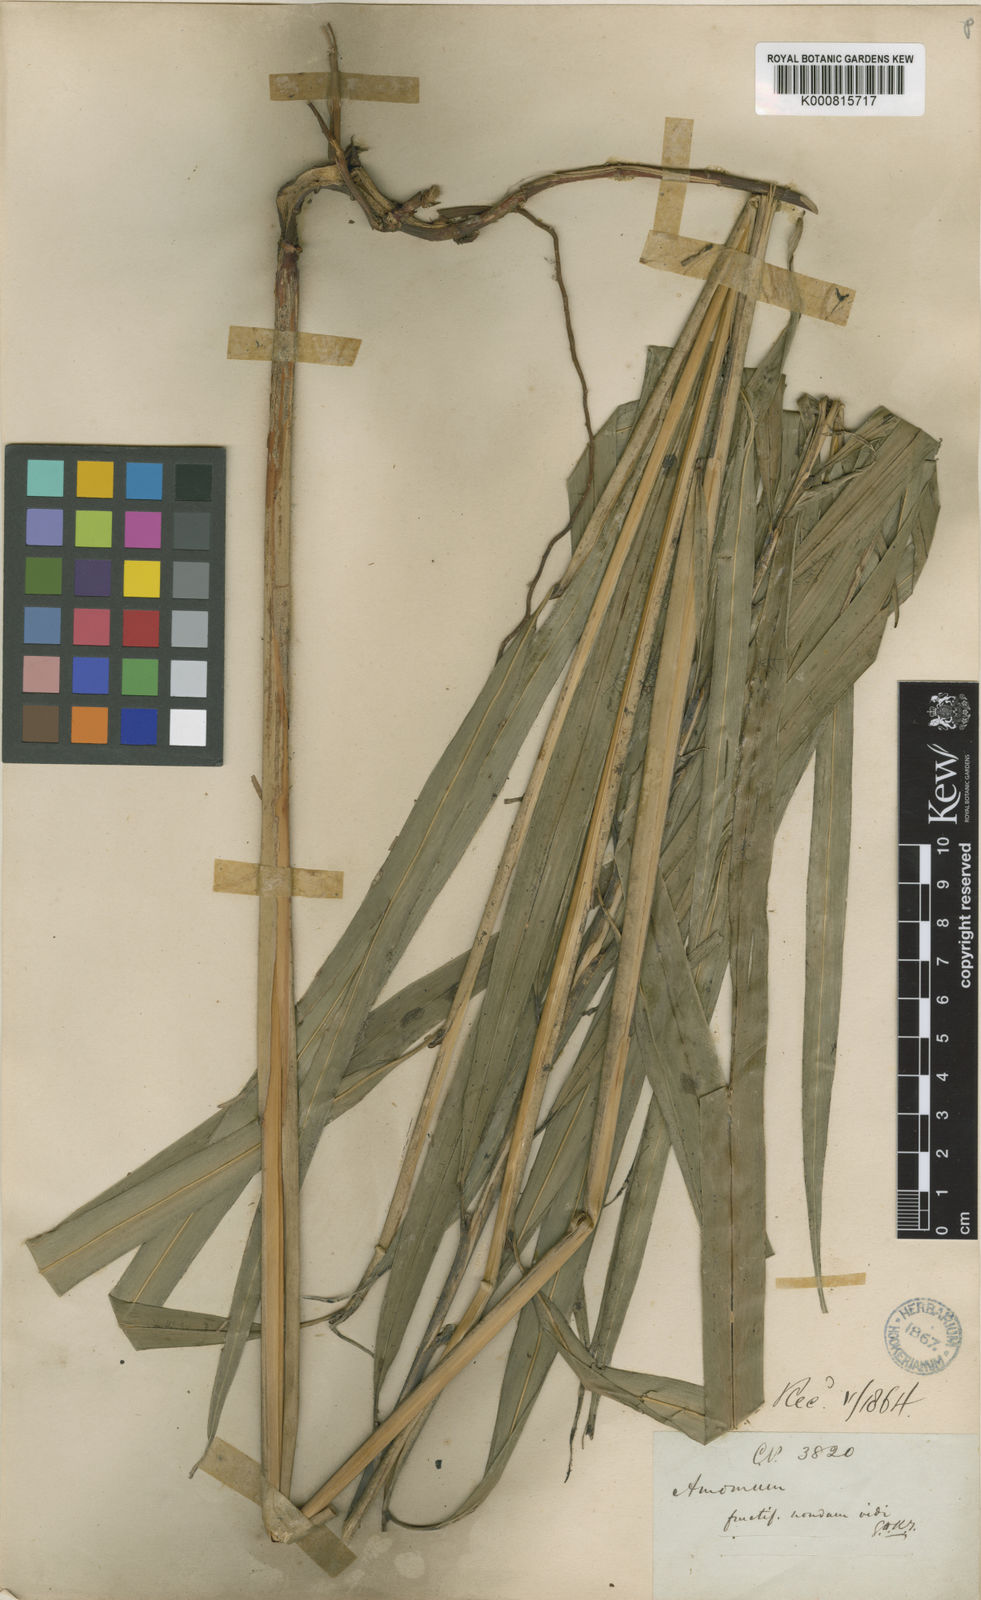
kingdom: Plantae
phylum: Tracheophyta
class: Liliopsida
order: Zingiberales
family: Zingiberaceae
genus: Meistera
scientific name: Meistera graminifolia
